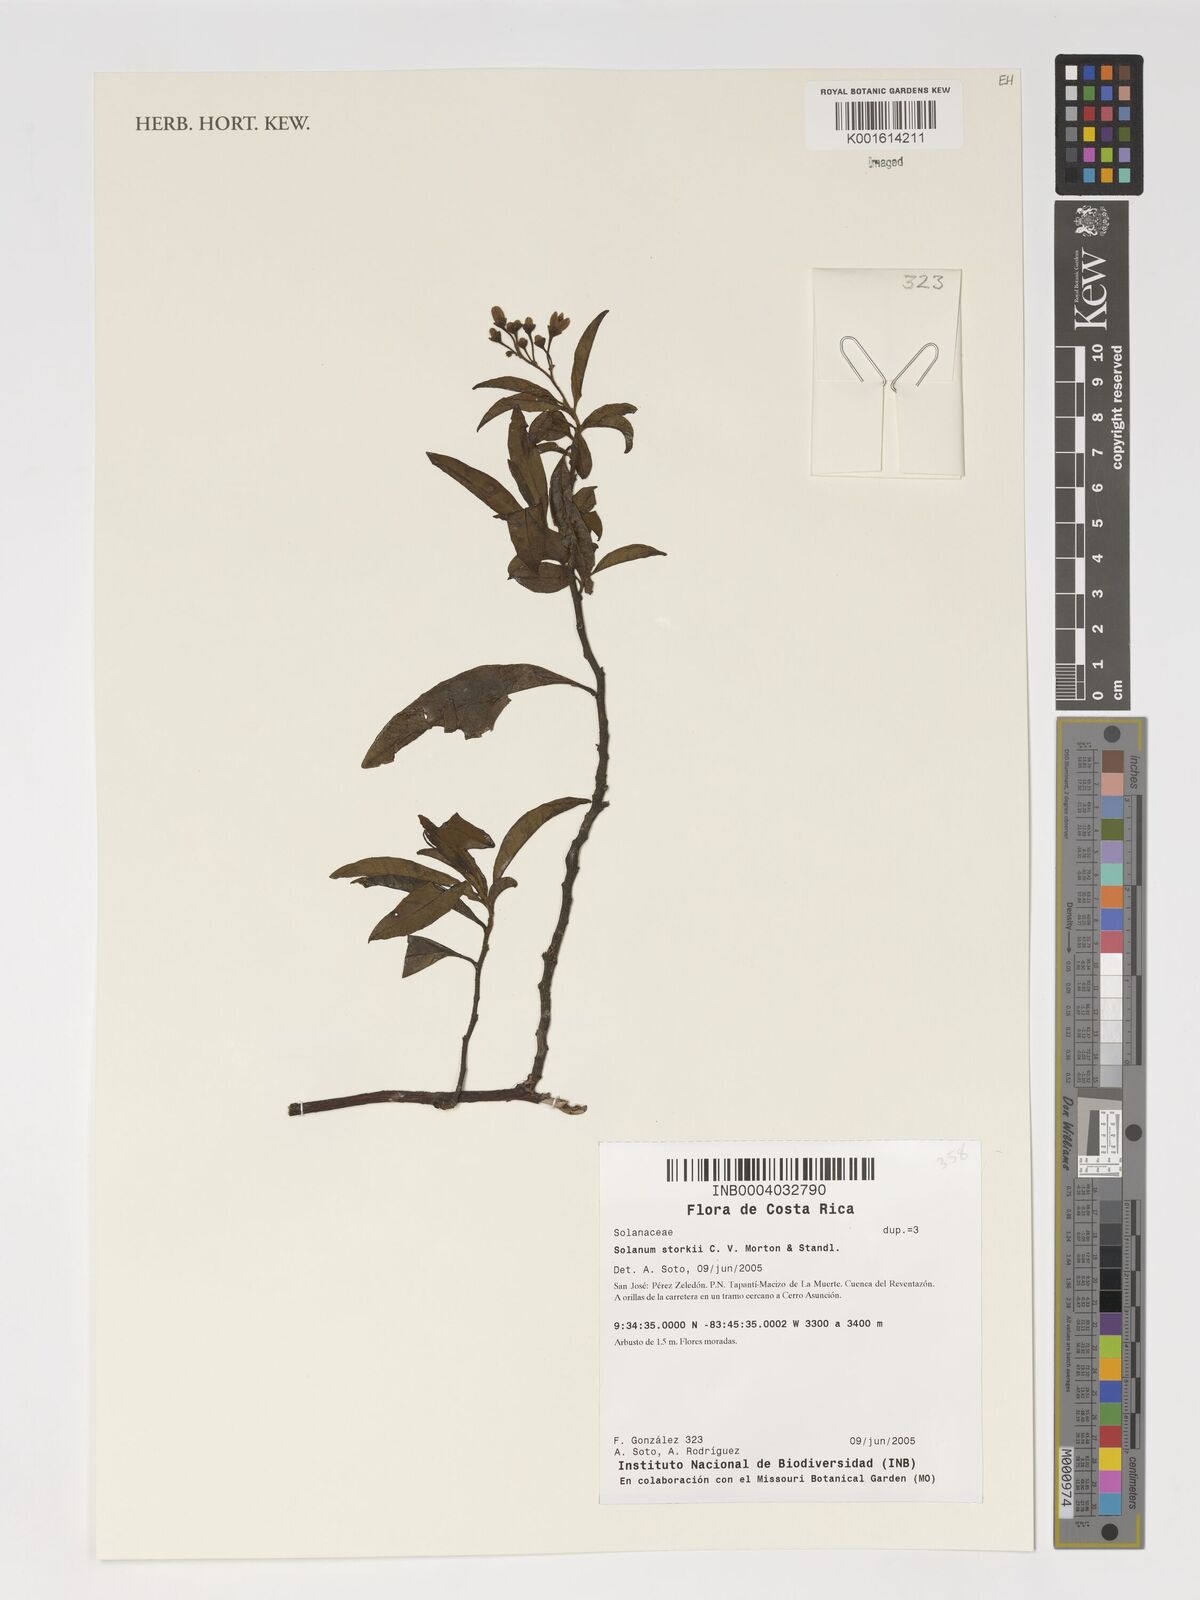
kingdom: Plantae
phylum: Tracheophyta
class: Magnoliopsida
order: Solanales
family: Solanaceae
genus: Solanum
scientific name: Solanum storkii
